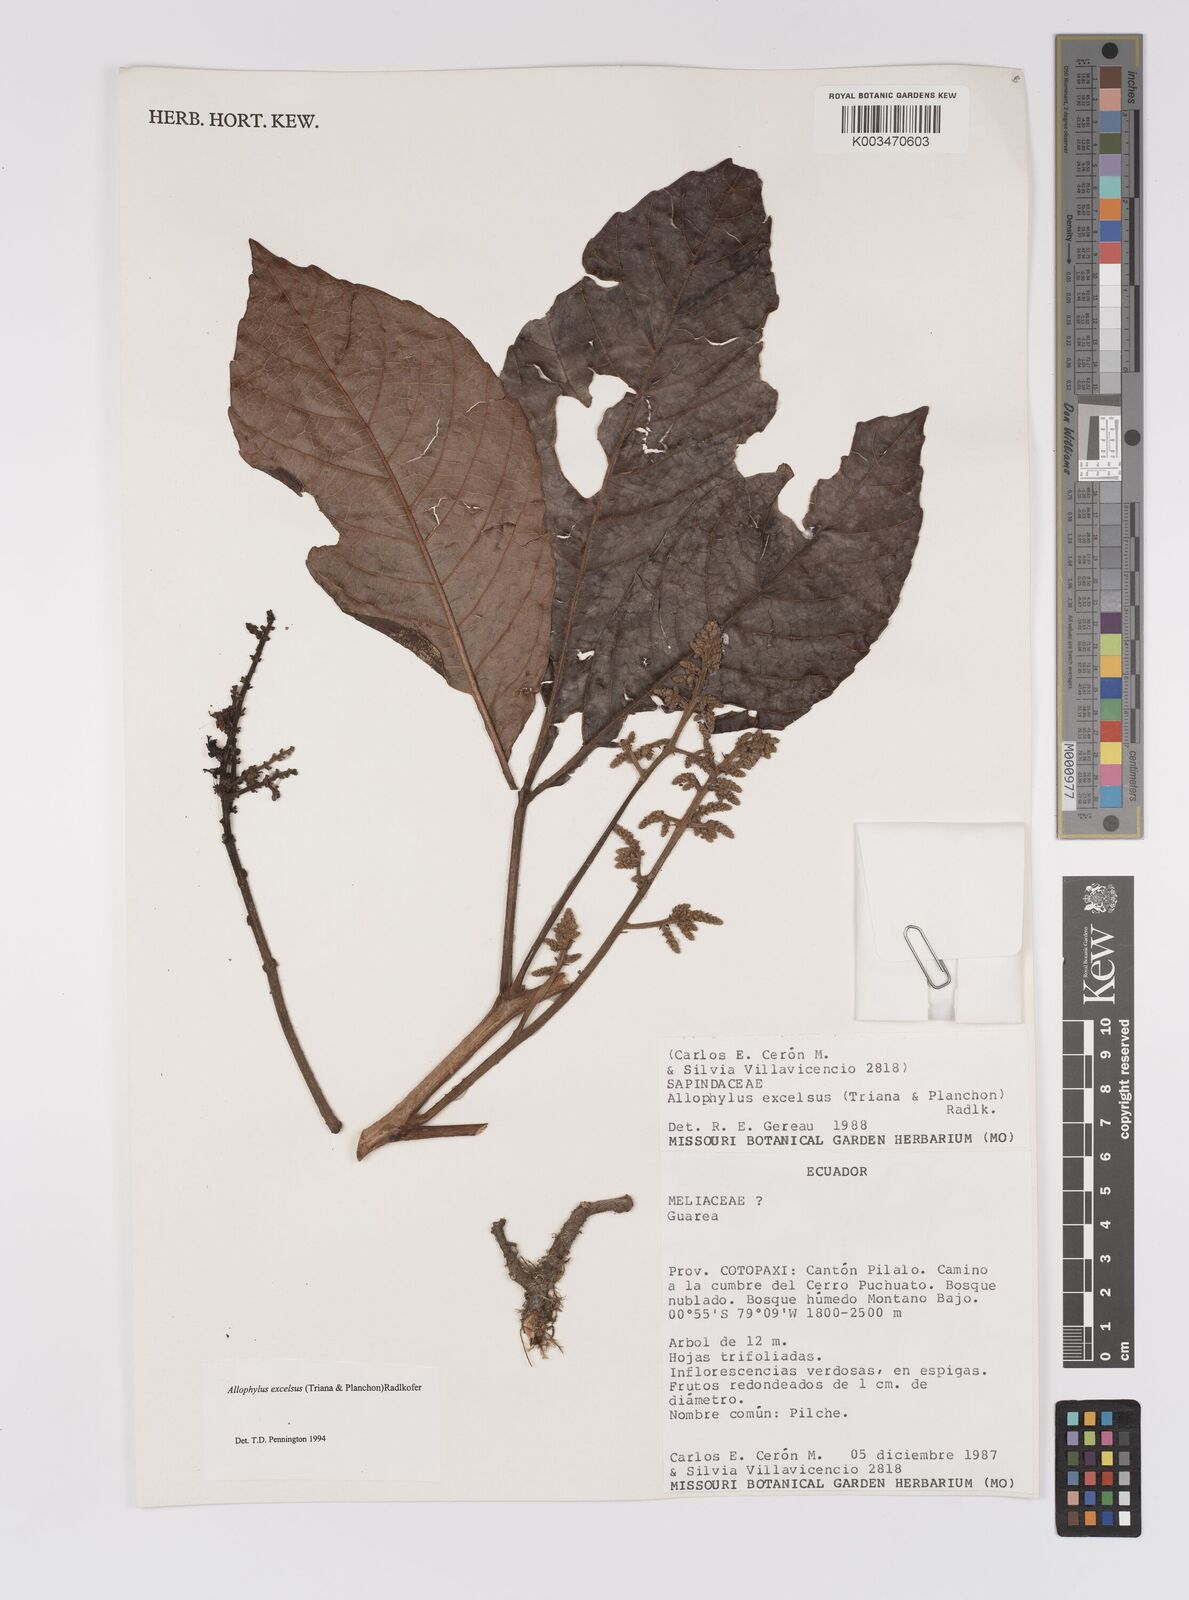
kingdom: Plantae
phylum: Tracheophyta
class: Magnoliopsida
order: Sapindales
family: Sapindaceae
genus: Allophylus
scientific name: Allophylus excelsus
